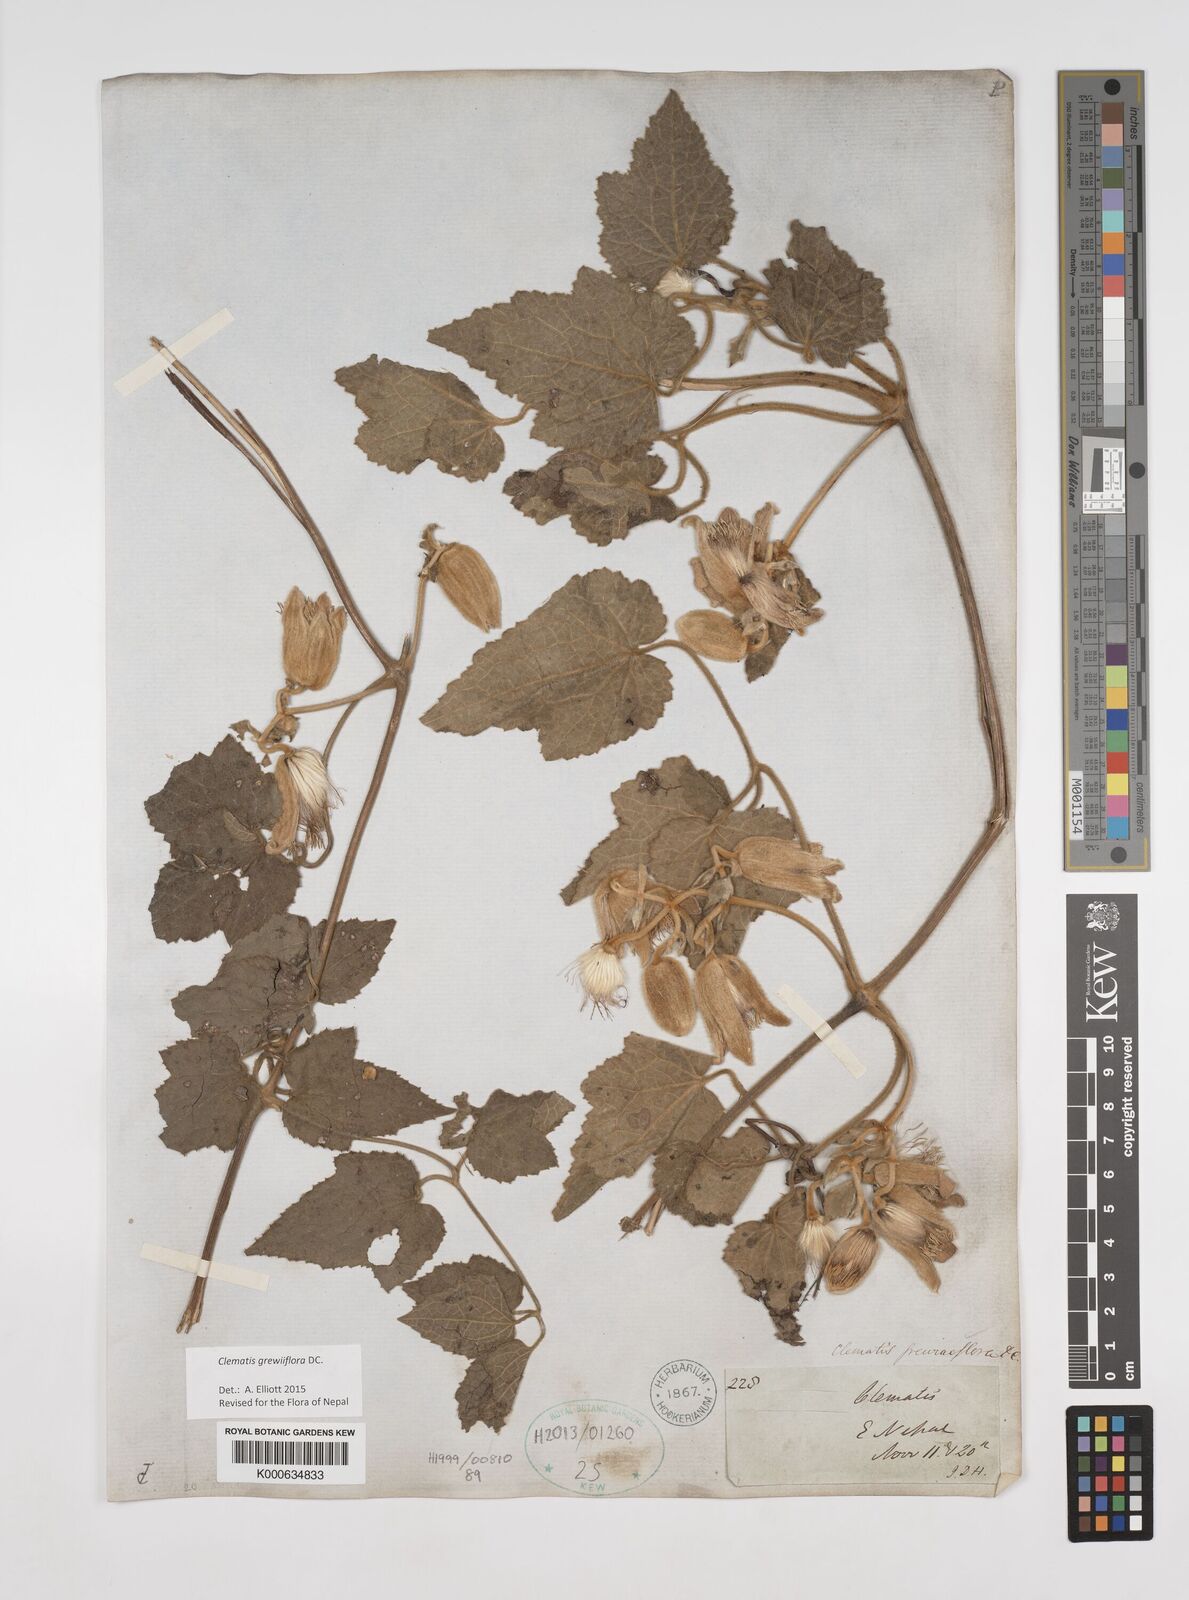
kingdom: Plantae
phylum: Tracheophyta
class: Magnoliopsida
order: Ranunculales
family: Ranunculaceae
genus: Clematis
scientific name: Clematis grewiiflora
